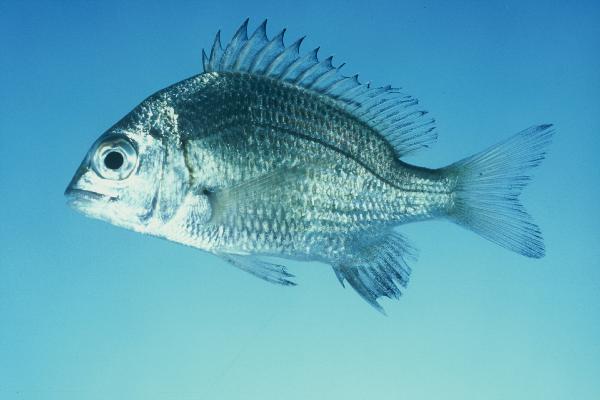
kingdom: Animalia
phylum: Chordata
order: Perciformes
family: Sparidae
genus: Acanthopagrus
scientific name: Acanthopagrus berda
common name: Picnic seabream
